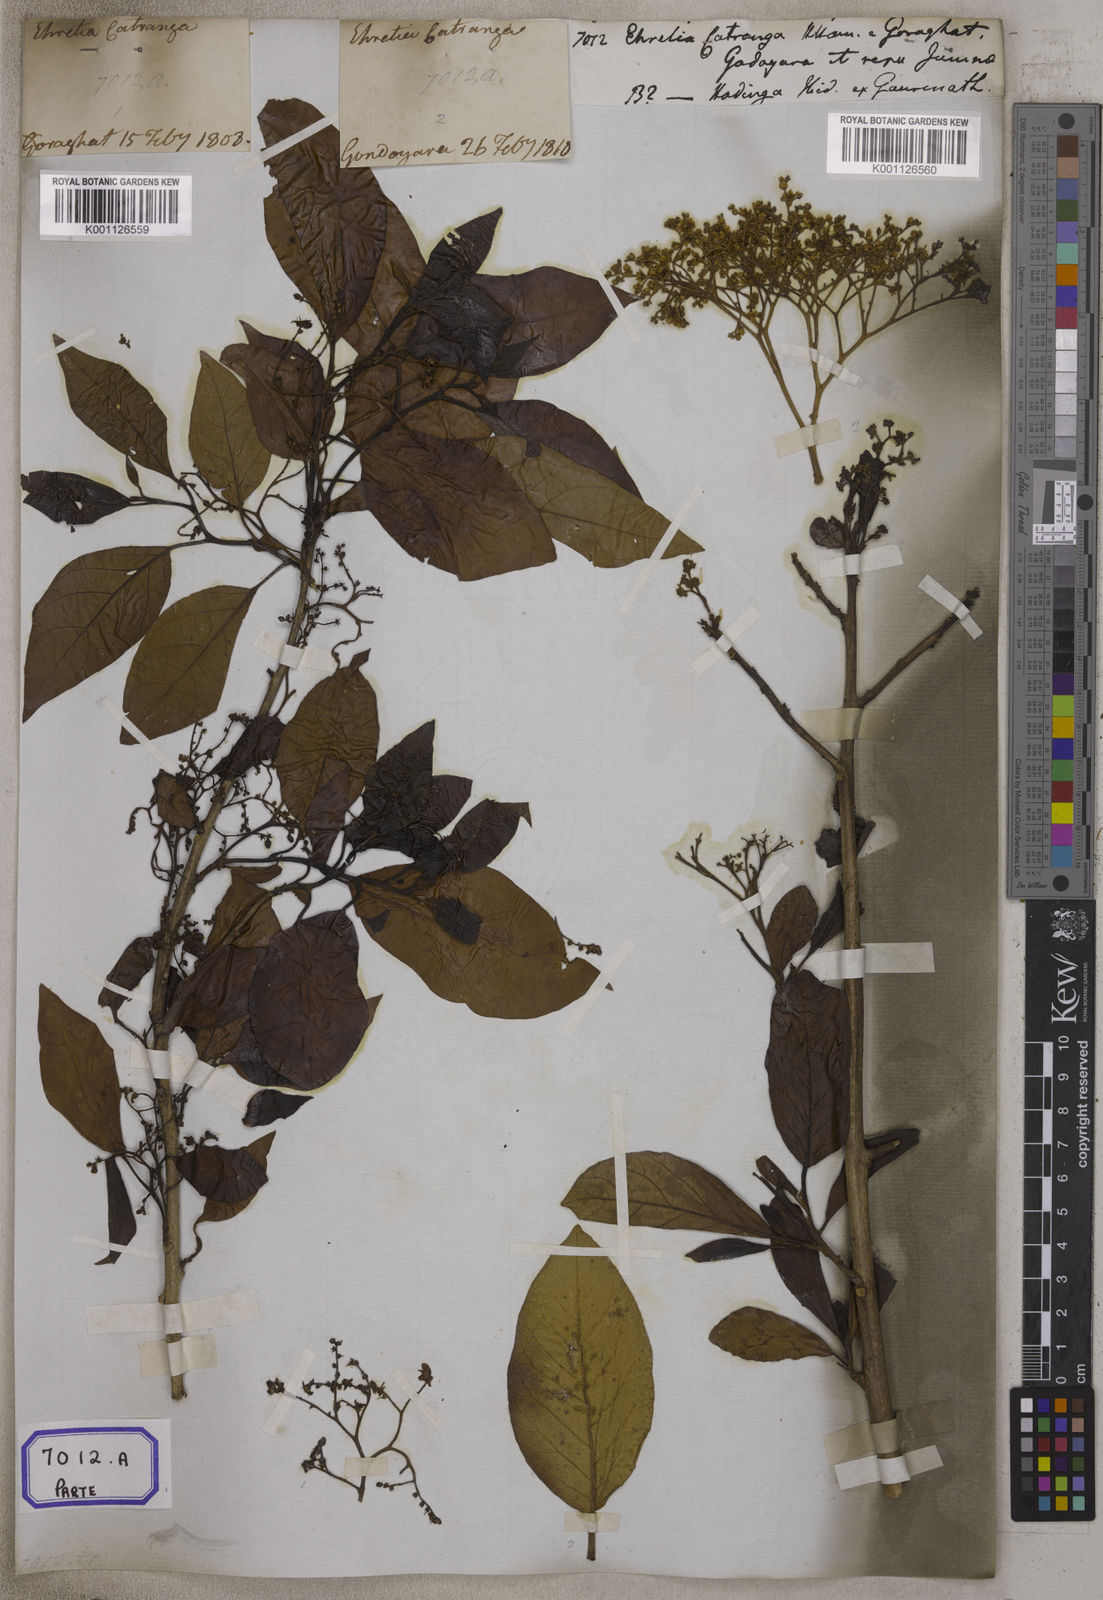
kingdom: Plantae
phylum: Tracheophyta
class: Magnoliopsida
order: Boraginales
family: Ehretiaceae
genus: Ehretia
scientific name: Ehretia aspera
